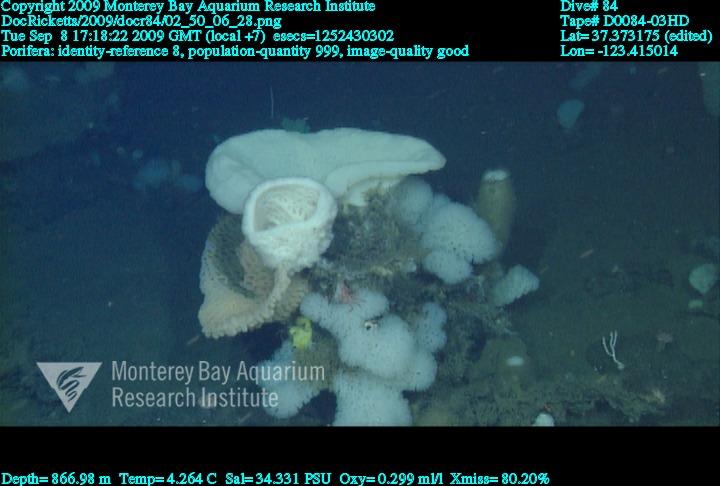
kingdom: Animalia
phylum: Porifera
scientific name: Porifera
